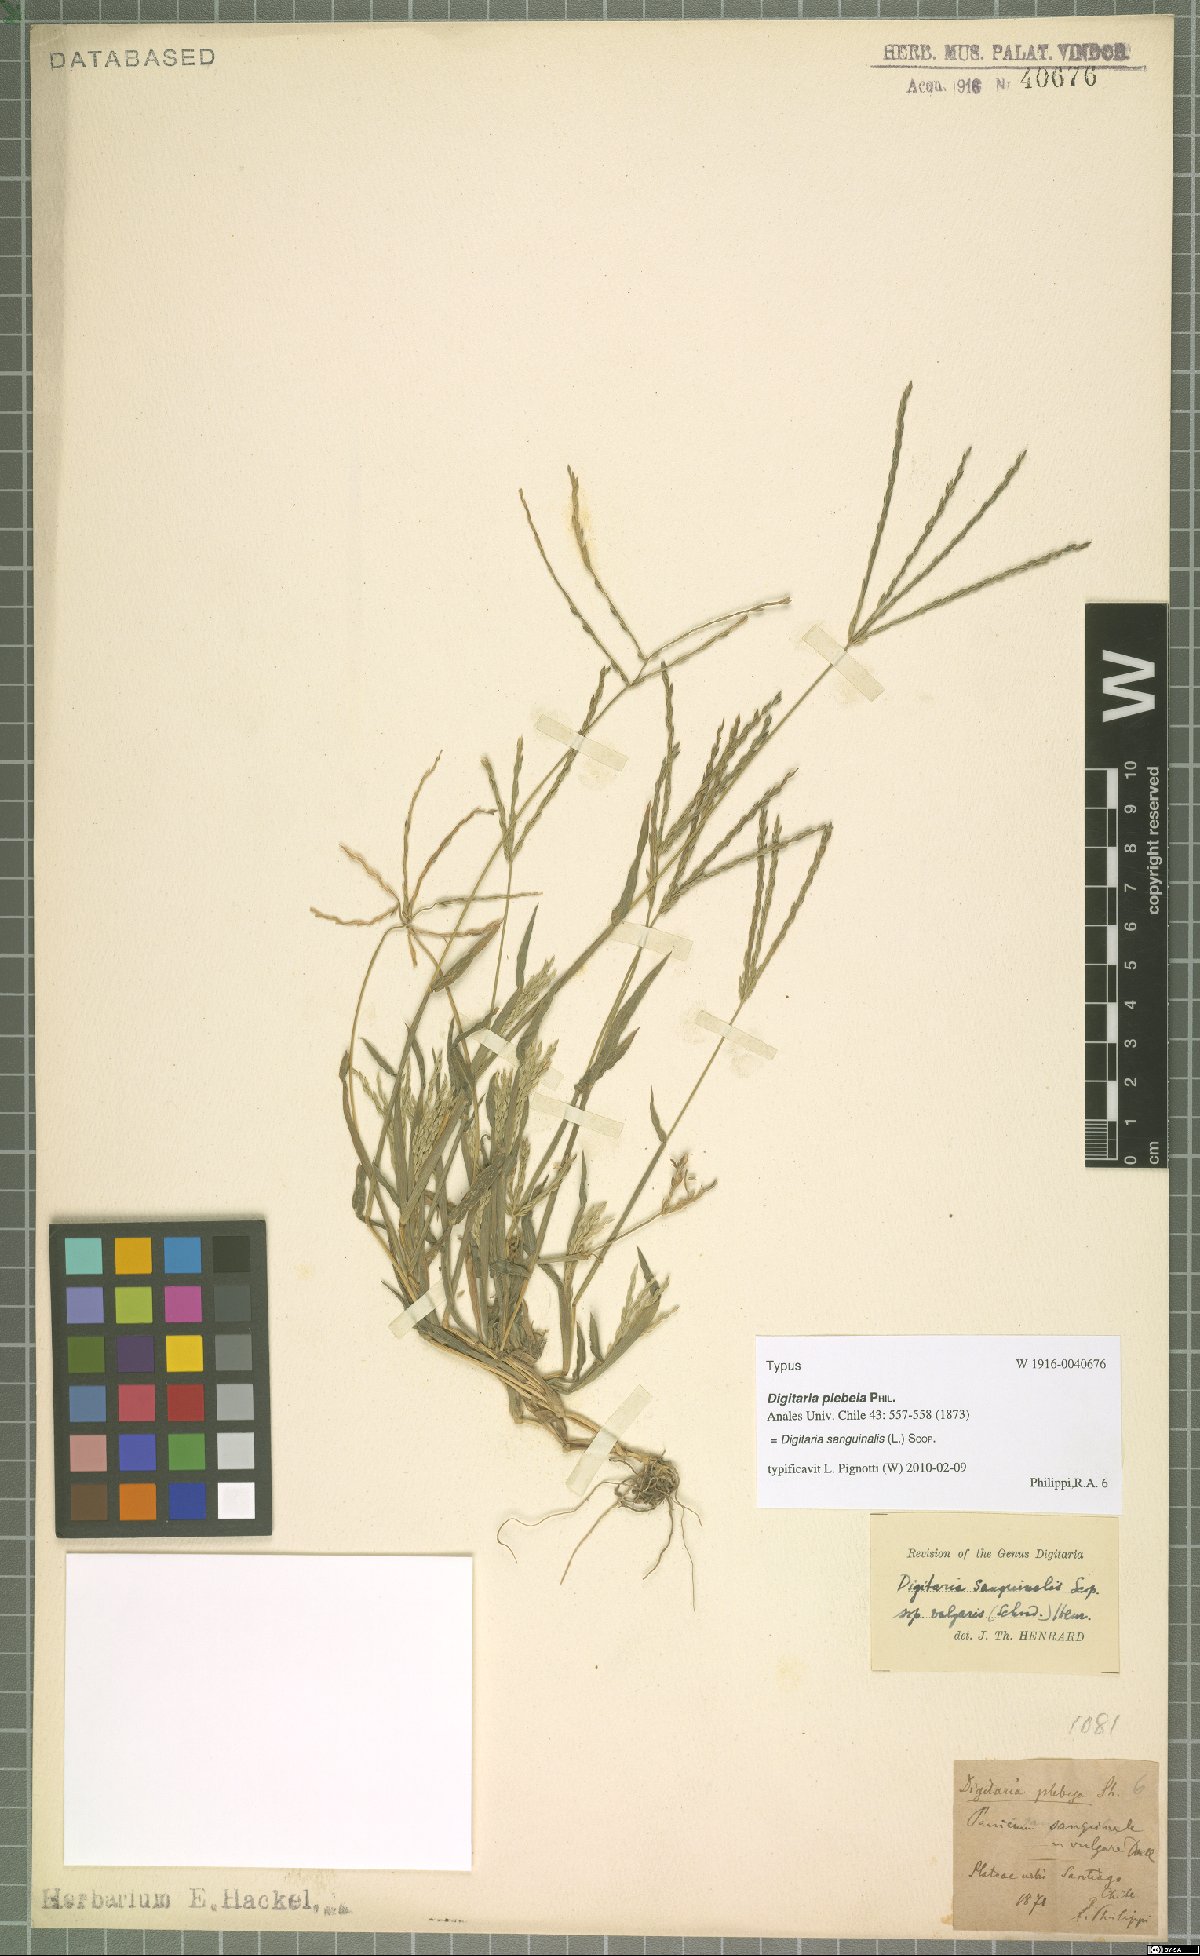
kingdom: Plantae
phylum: Tracheophyta
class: Liliopsida
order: Poales
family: Poaceae
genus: Digitaria
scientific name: Digitaria sanguinalis
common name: Hairy crabgrass
